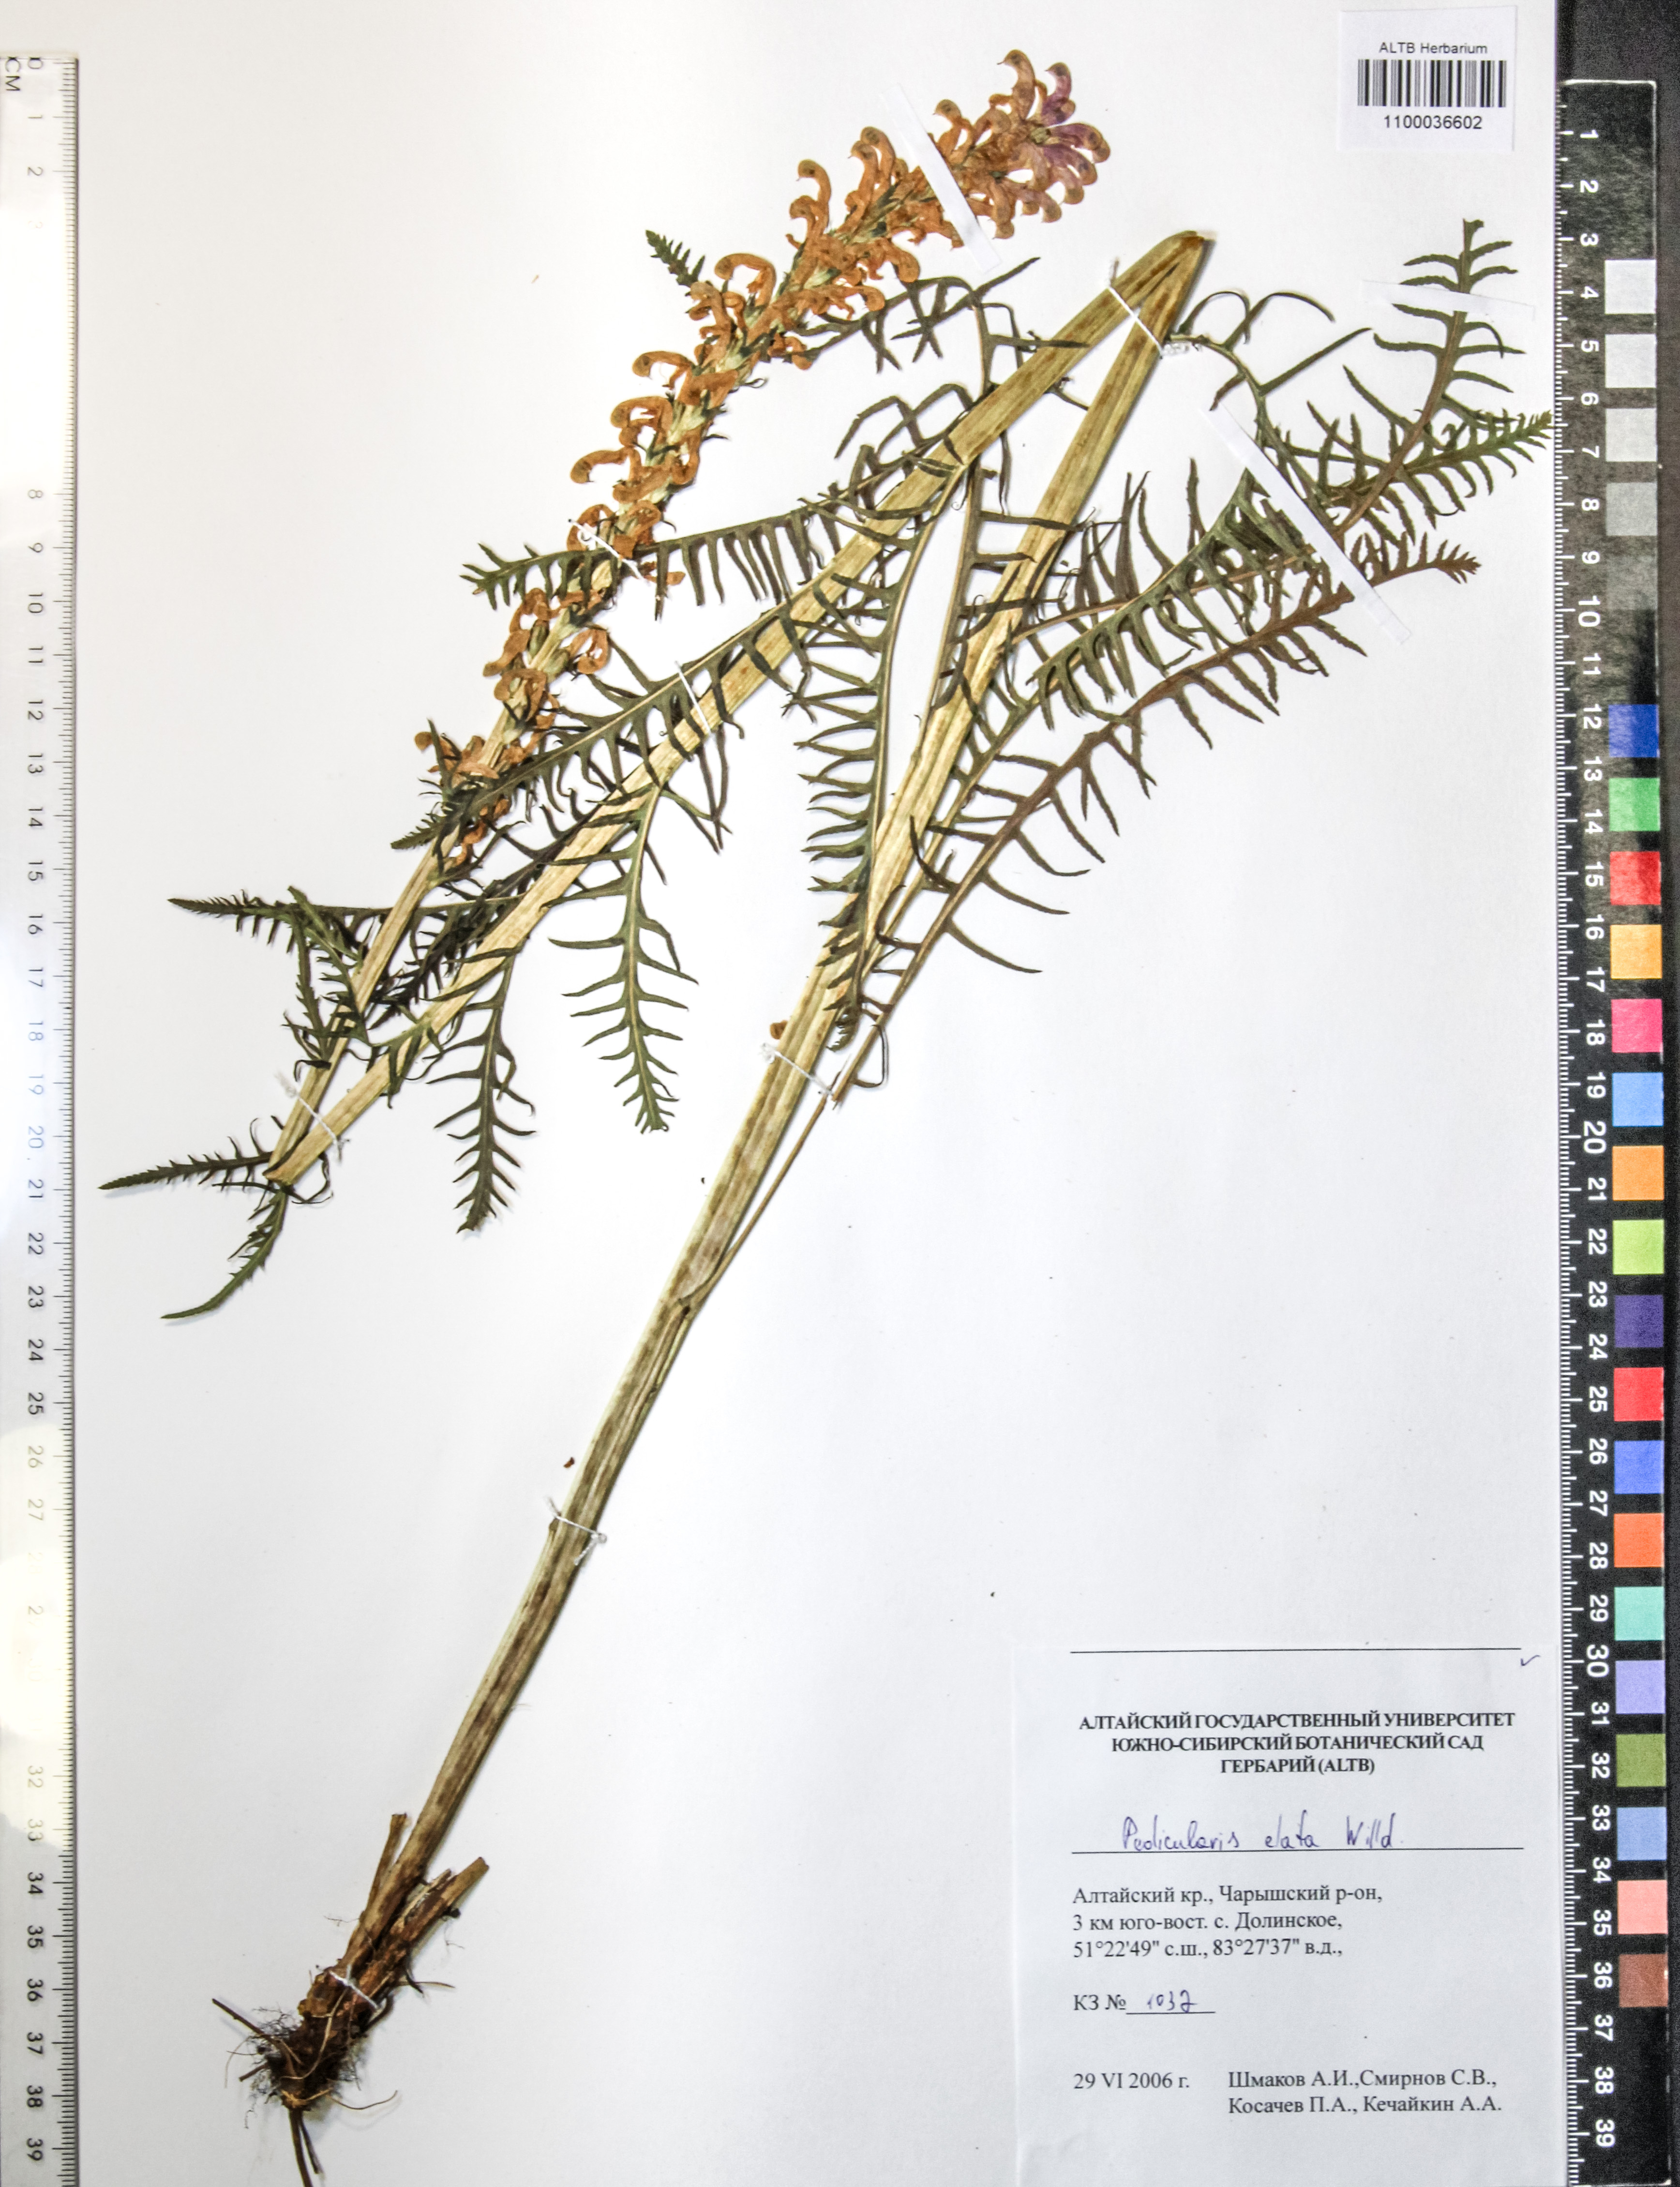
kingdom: Plantae
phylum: Tracheophyta
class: Magnoliopsida
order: Lamiales
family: Orobanchaceae
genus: Pedicularis
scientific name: Pedicularis elata
